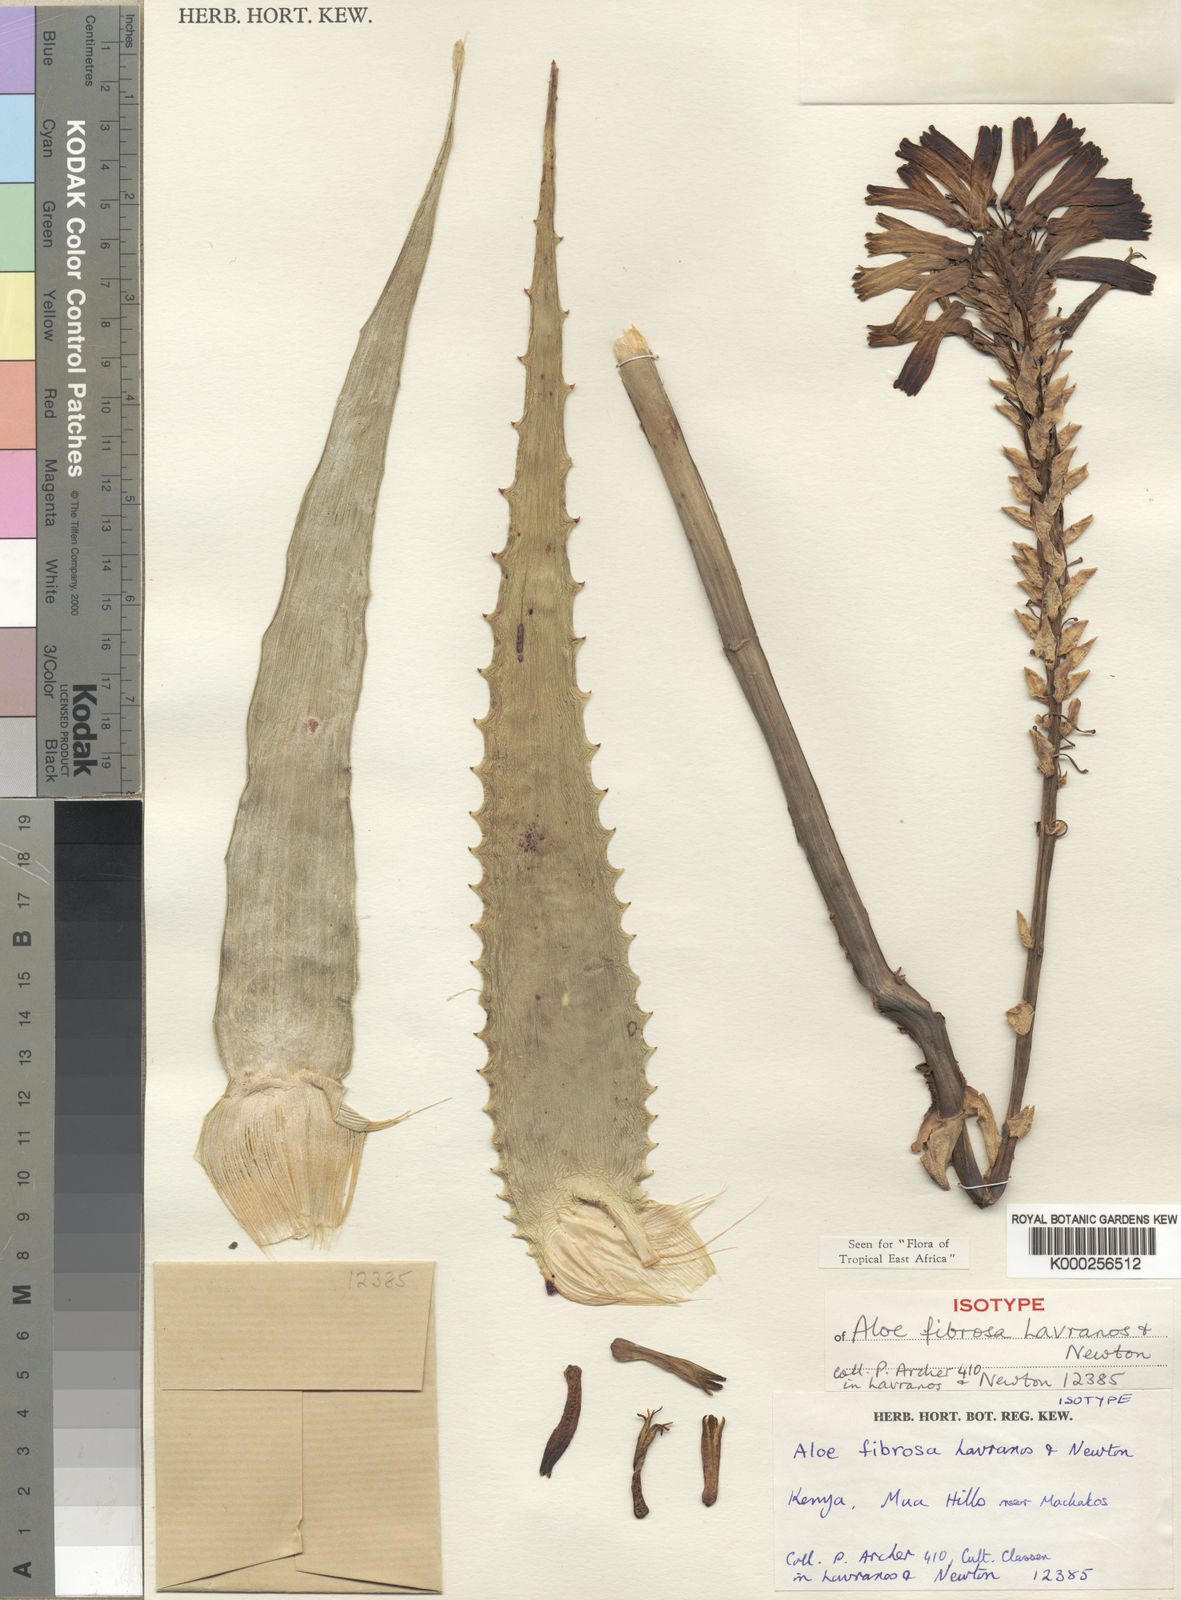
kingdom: Plantae
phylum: Tracheophyta
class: Liliopsida
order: Asparagales
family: Asphodelaceae
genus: Aloe
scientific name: Aloe fibrosa
